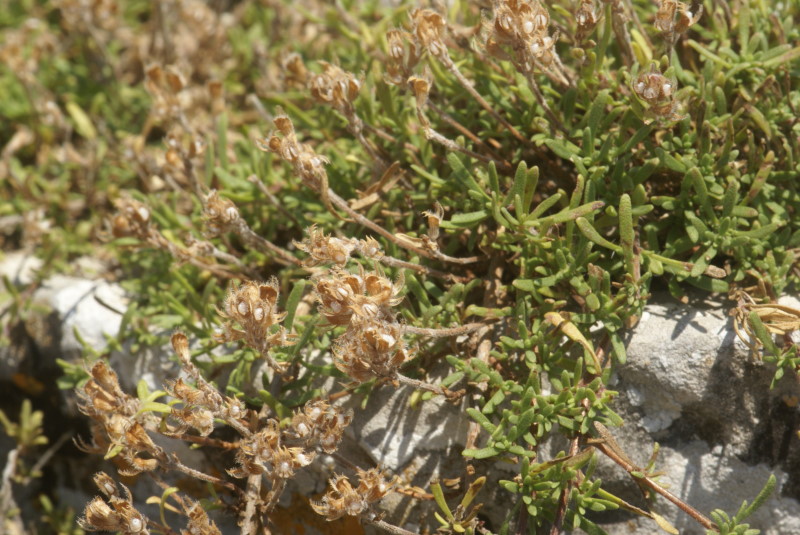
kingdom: Plantae
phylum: Tracheophyta
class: Magnoliopsida
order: Lamiales
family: Lamiaceae
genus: Thymus
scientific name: Thymus
